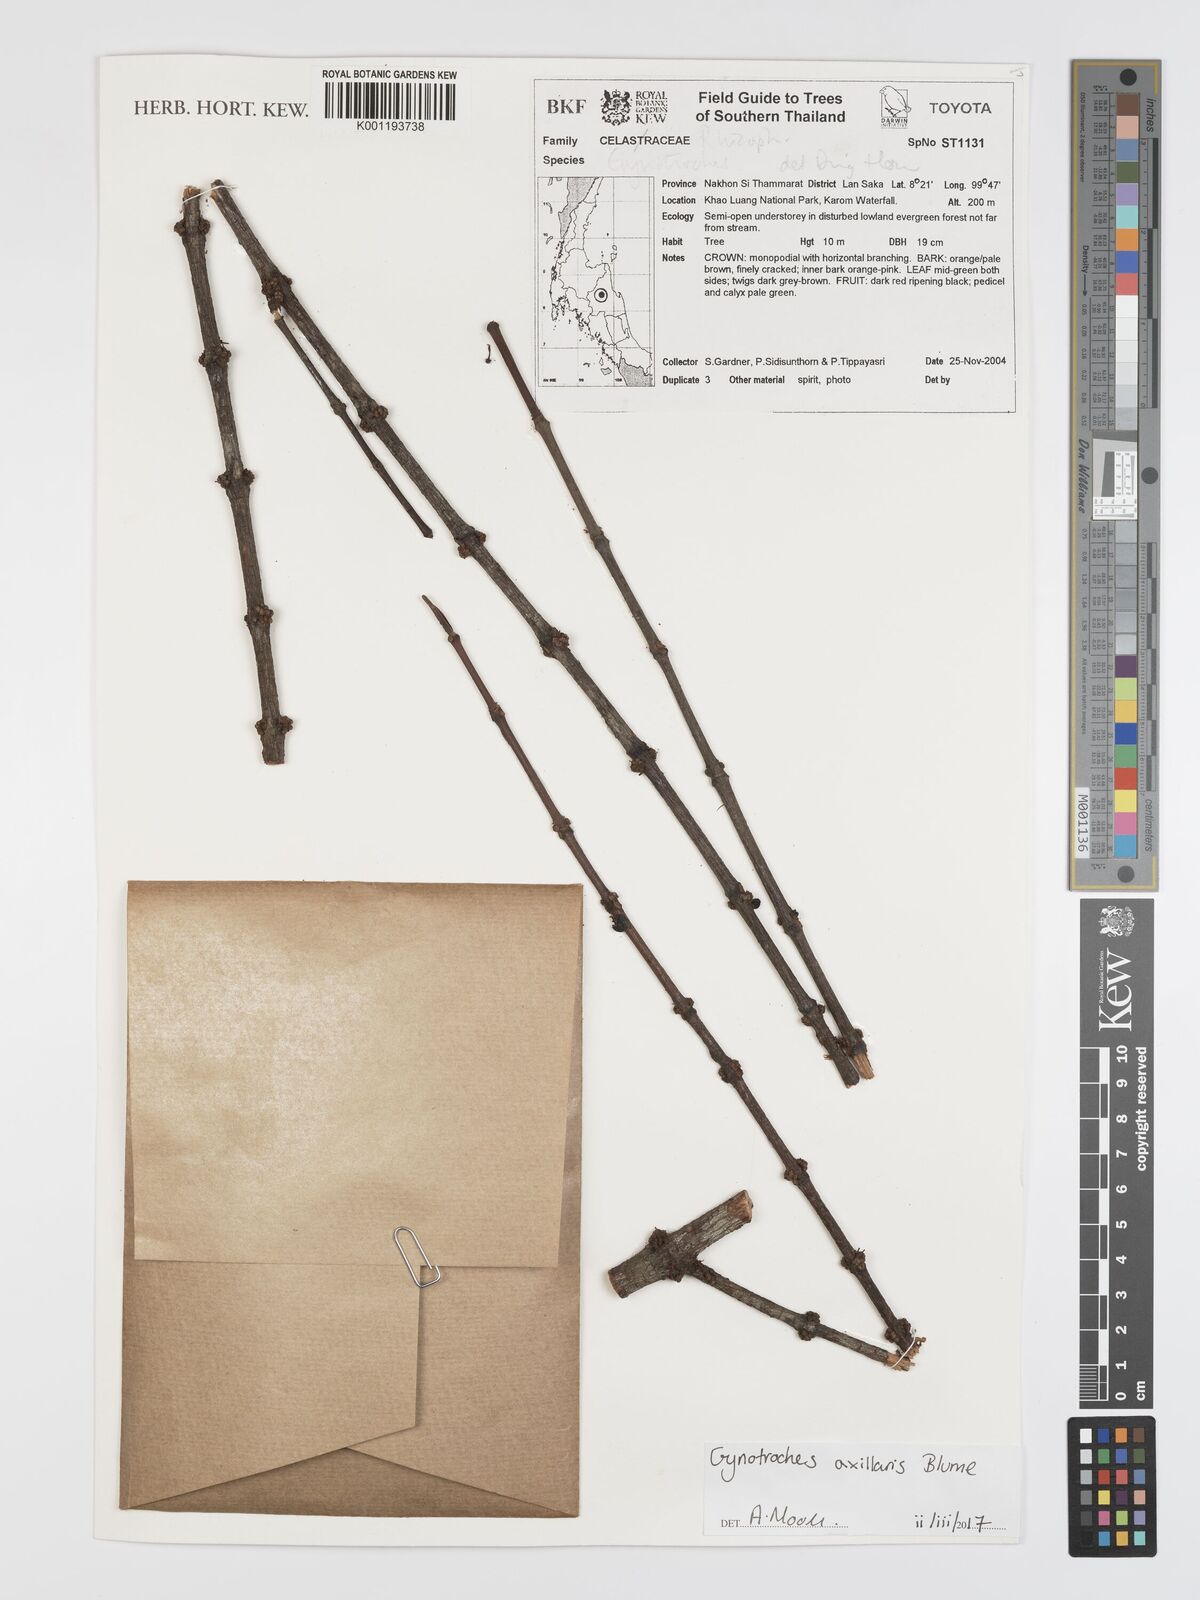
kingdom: Plantae
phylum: Tracheophyta
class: Magnoliopsida
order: Malpighiales
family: Rhizophoraceae
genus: Gynotroches
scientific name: Gynotroches axillaris
